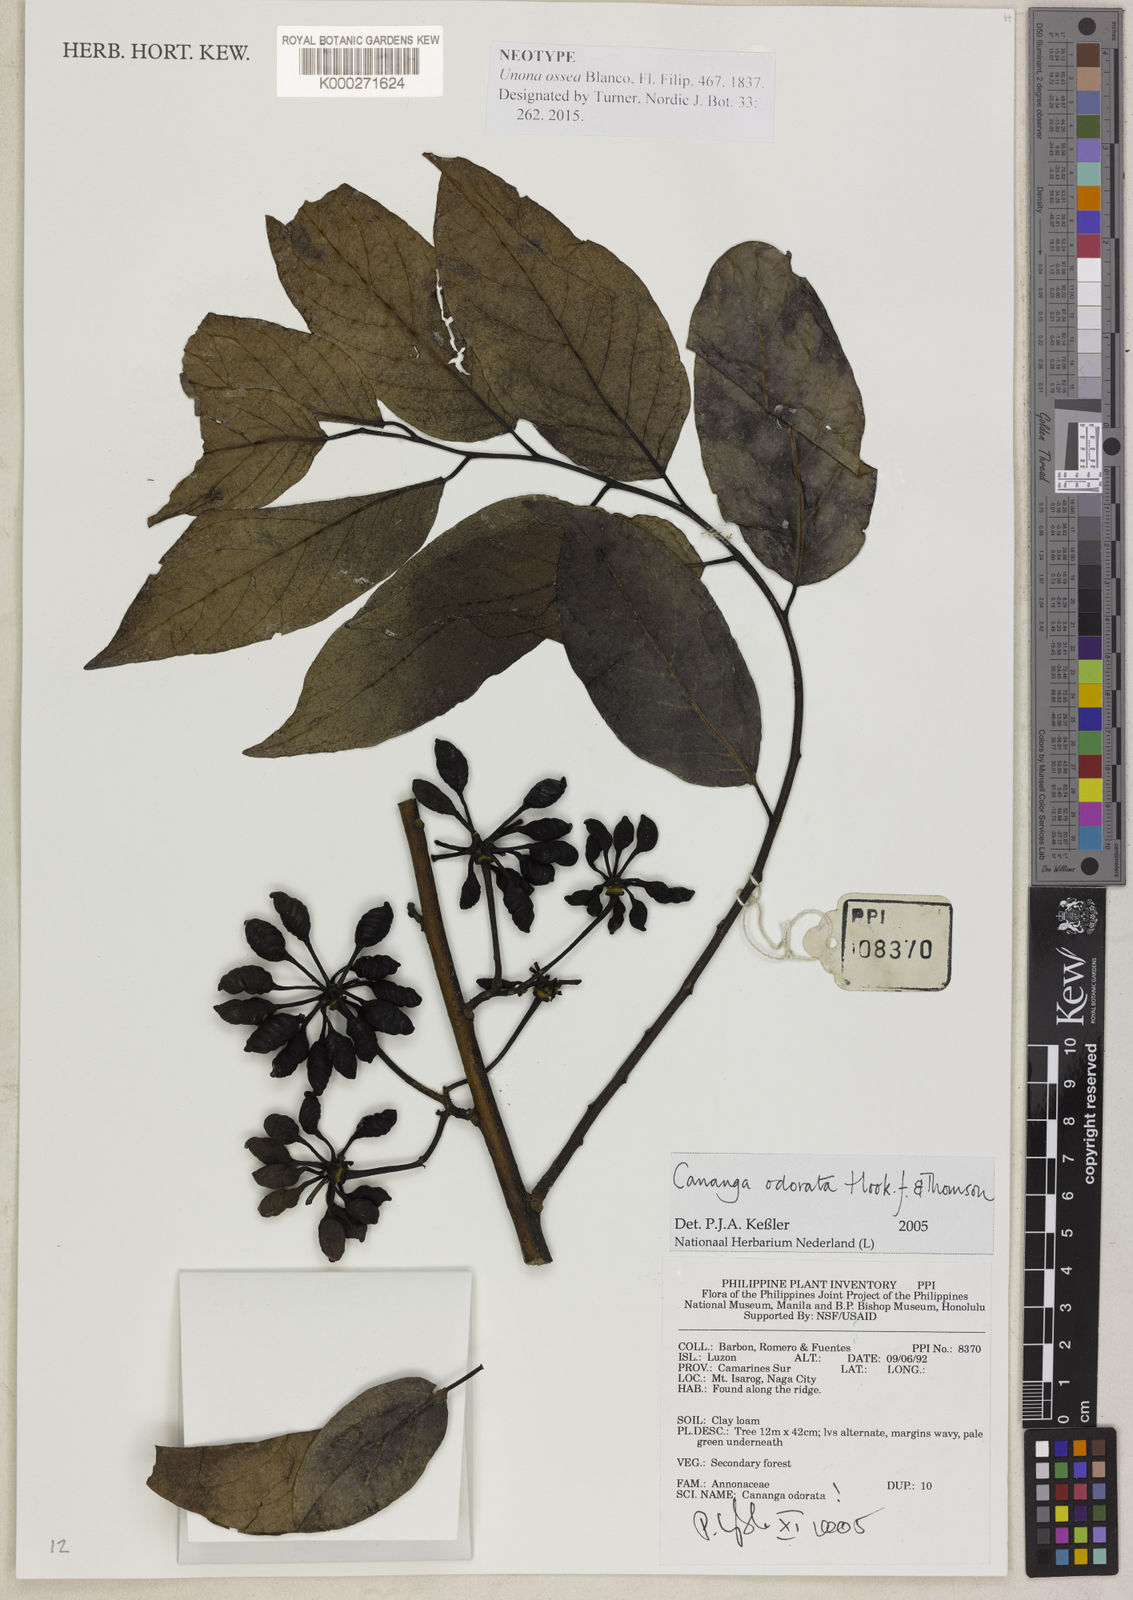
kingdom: Plantae
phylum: Tracheophyta
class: Magnoliopsida
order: Magnoliales
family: Annonaceae
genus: Cananga
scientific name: Cananga odorata
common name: Cananga tree
